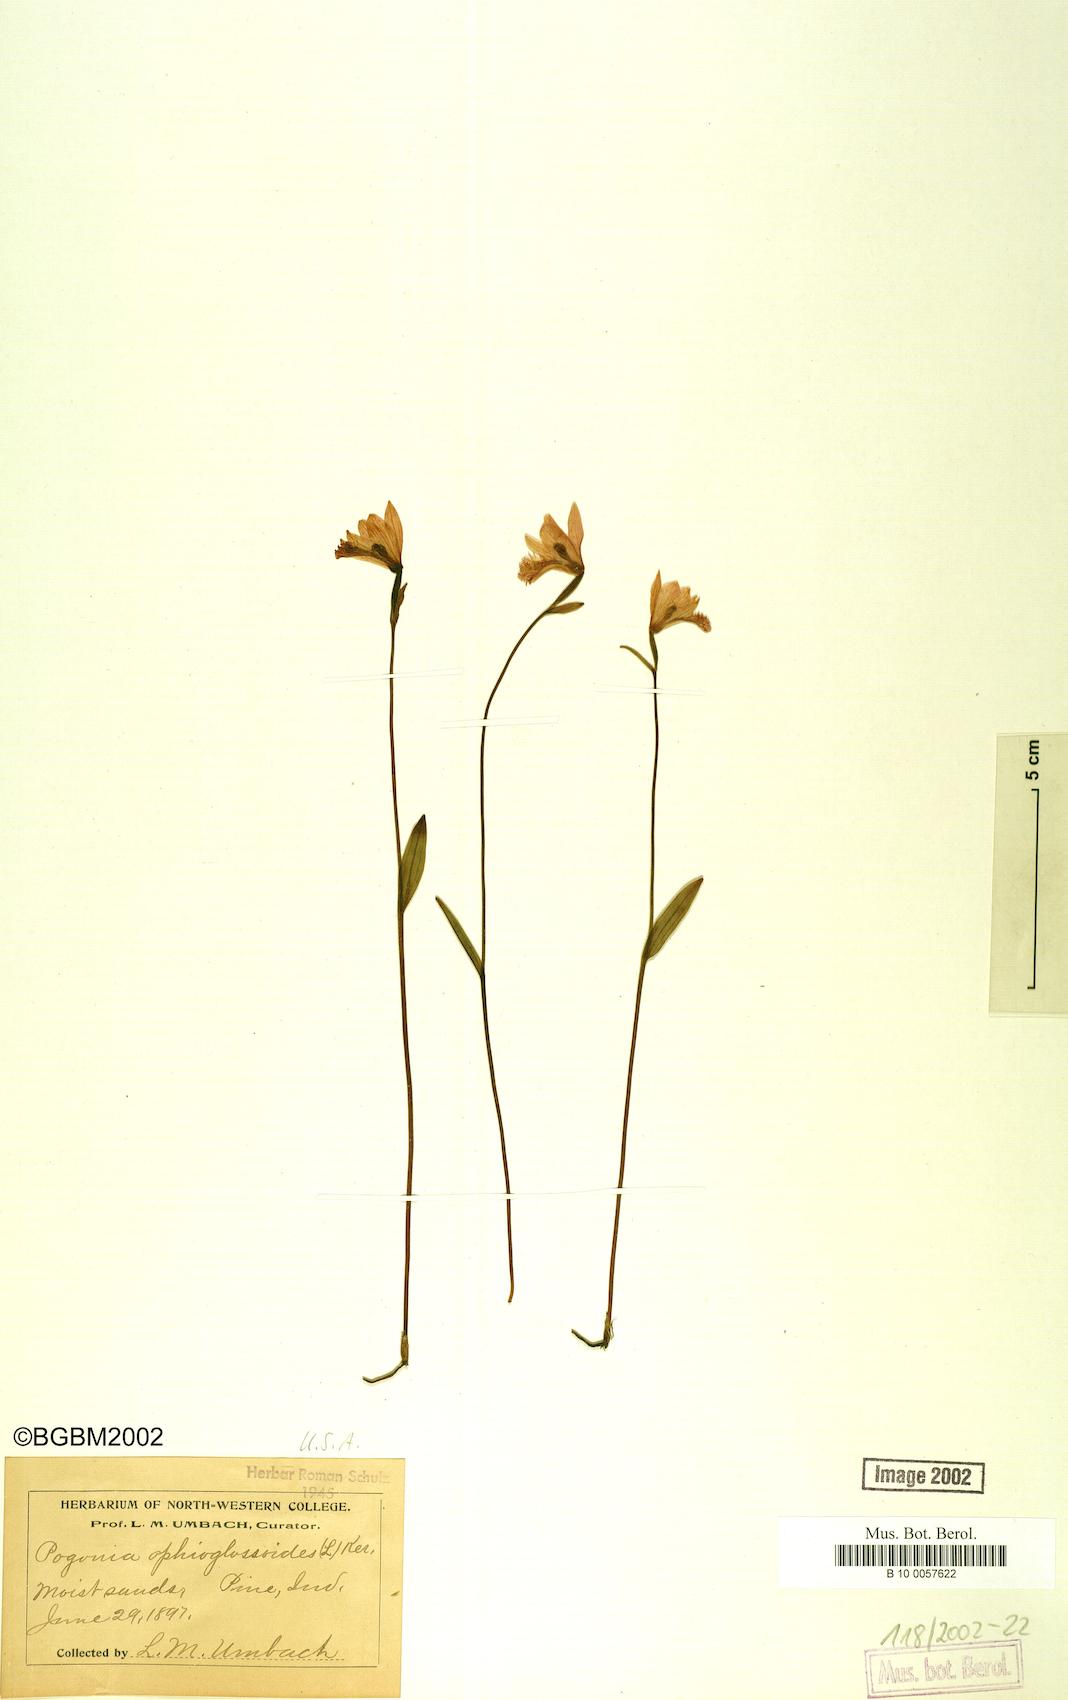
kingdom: Plantae
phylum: Tracheophyta
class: Liliopsida
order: Asparagales
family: Orchidaceae
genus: Pogonia
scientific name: Pogonia ophioglossoides
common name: Rose pogonia
